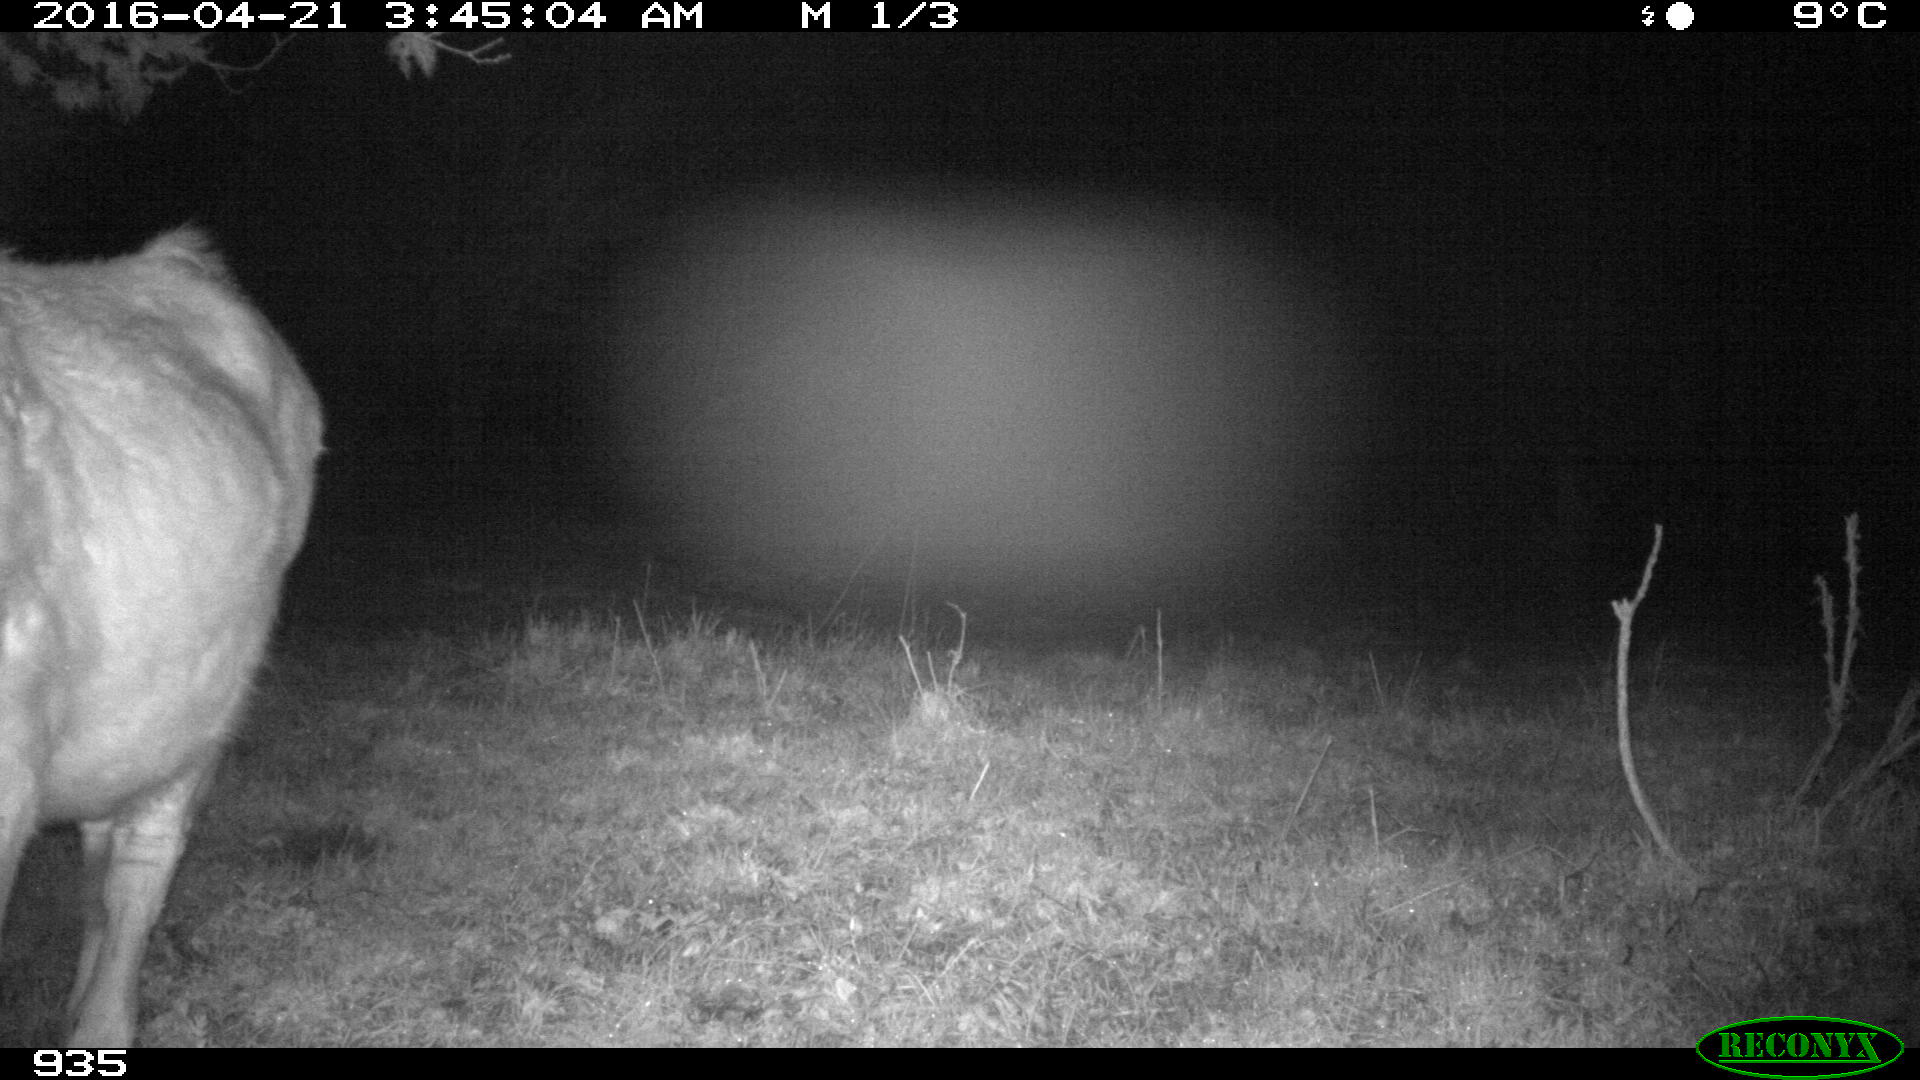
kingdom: Animalia
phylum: Chordata
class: Mammalia
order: Artiodactyla
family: Bovidae
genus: Bos
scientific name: Bos taurus
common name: Domesticated cattle
